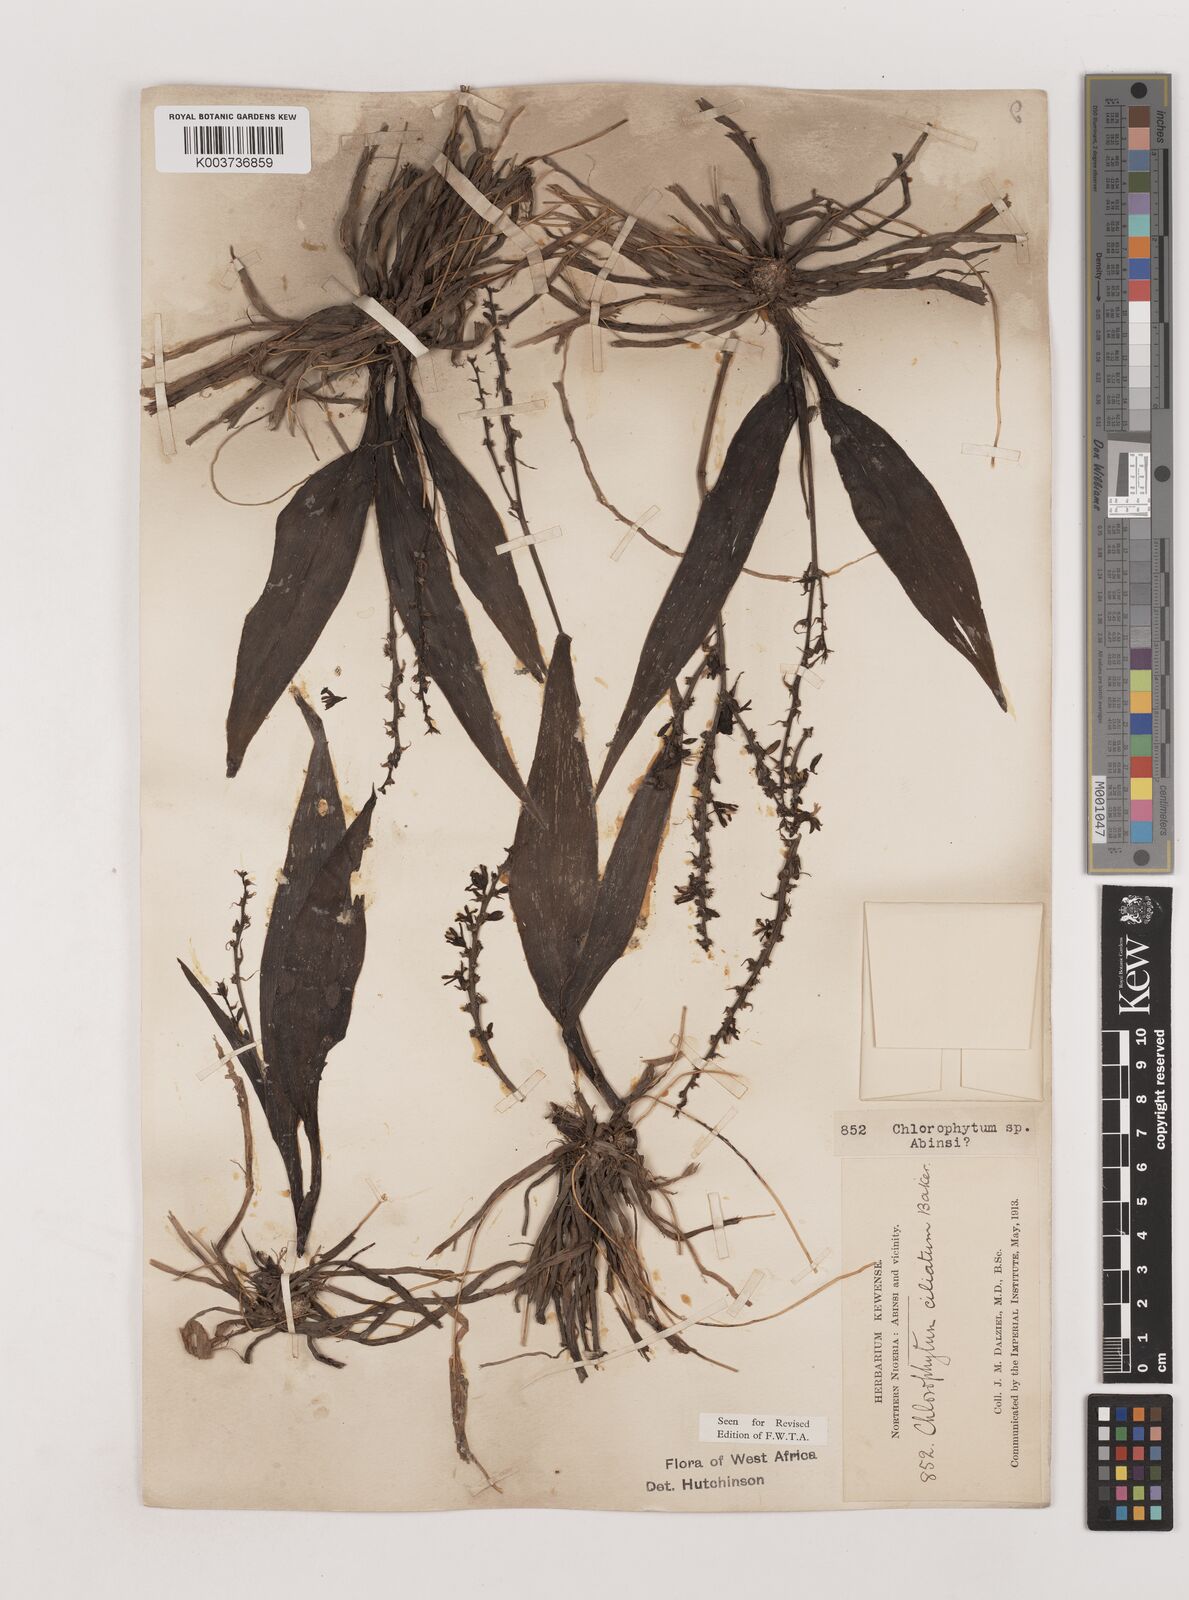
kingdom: Plantae
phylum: Tracheophyta
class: Liliopsida
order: Asparagales
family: Asparagaceae
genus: Chlorophytum
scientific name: Chlorophytum blepharophyllum
